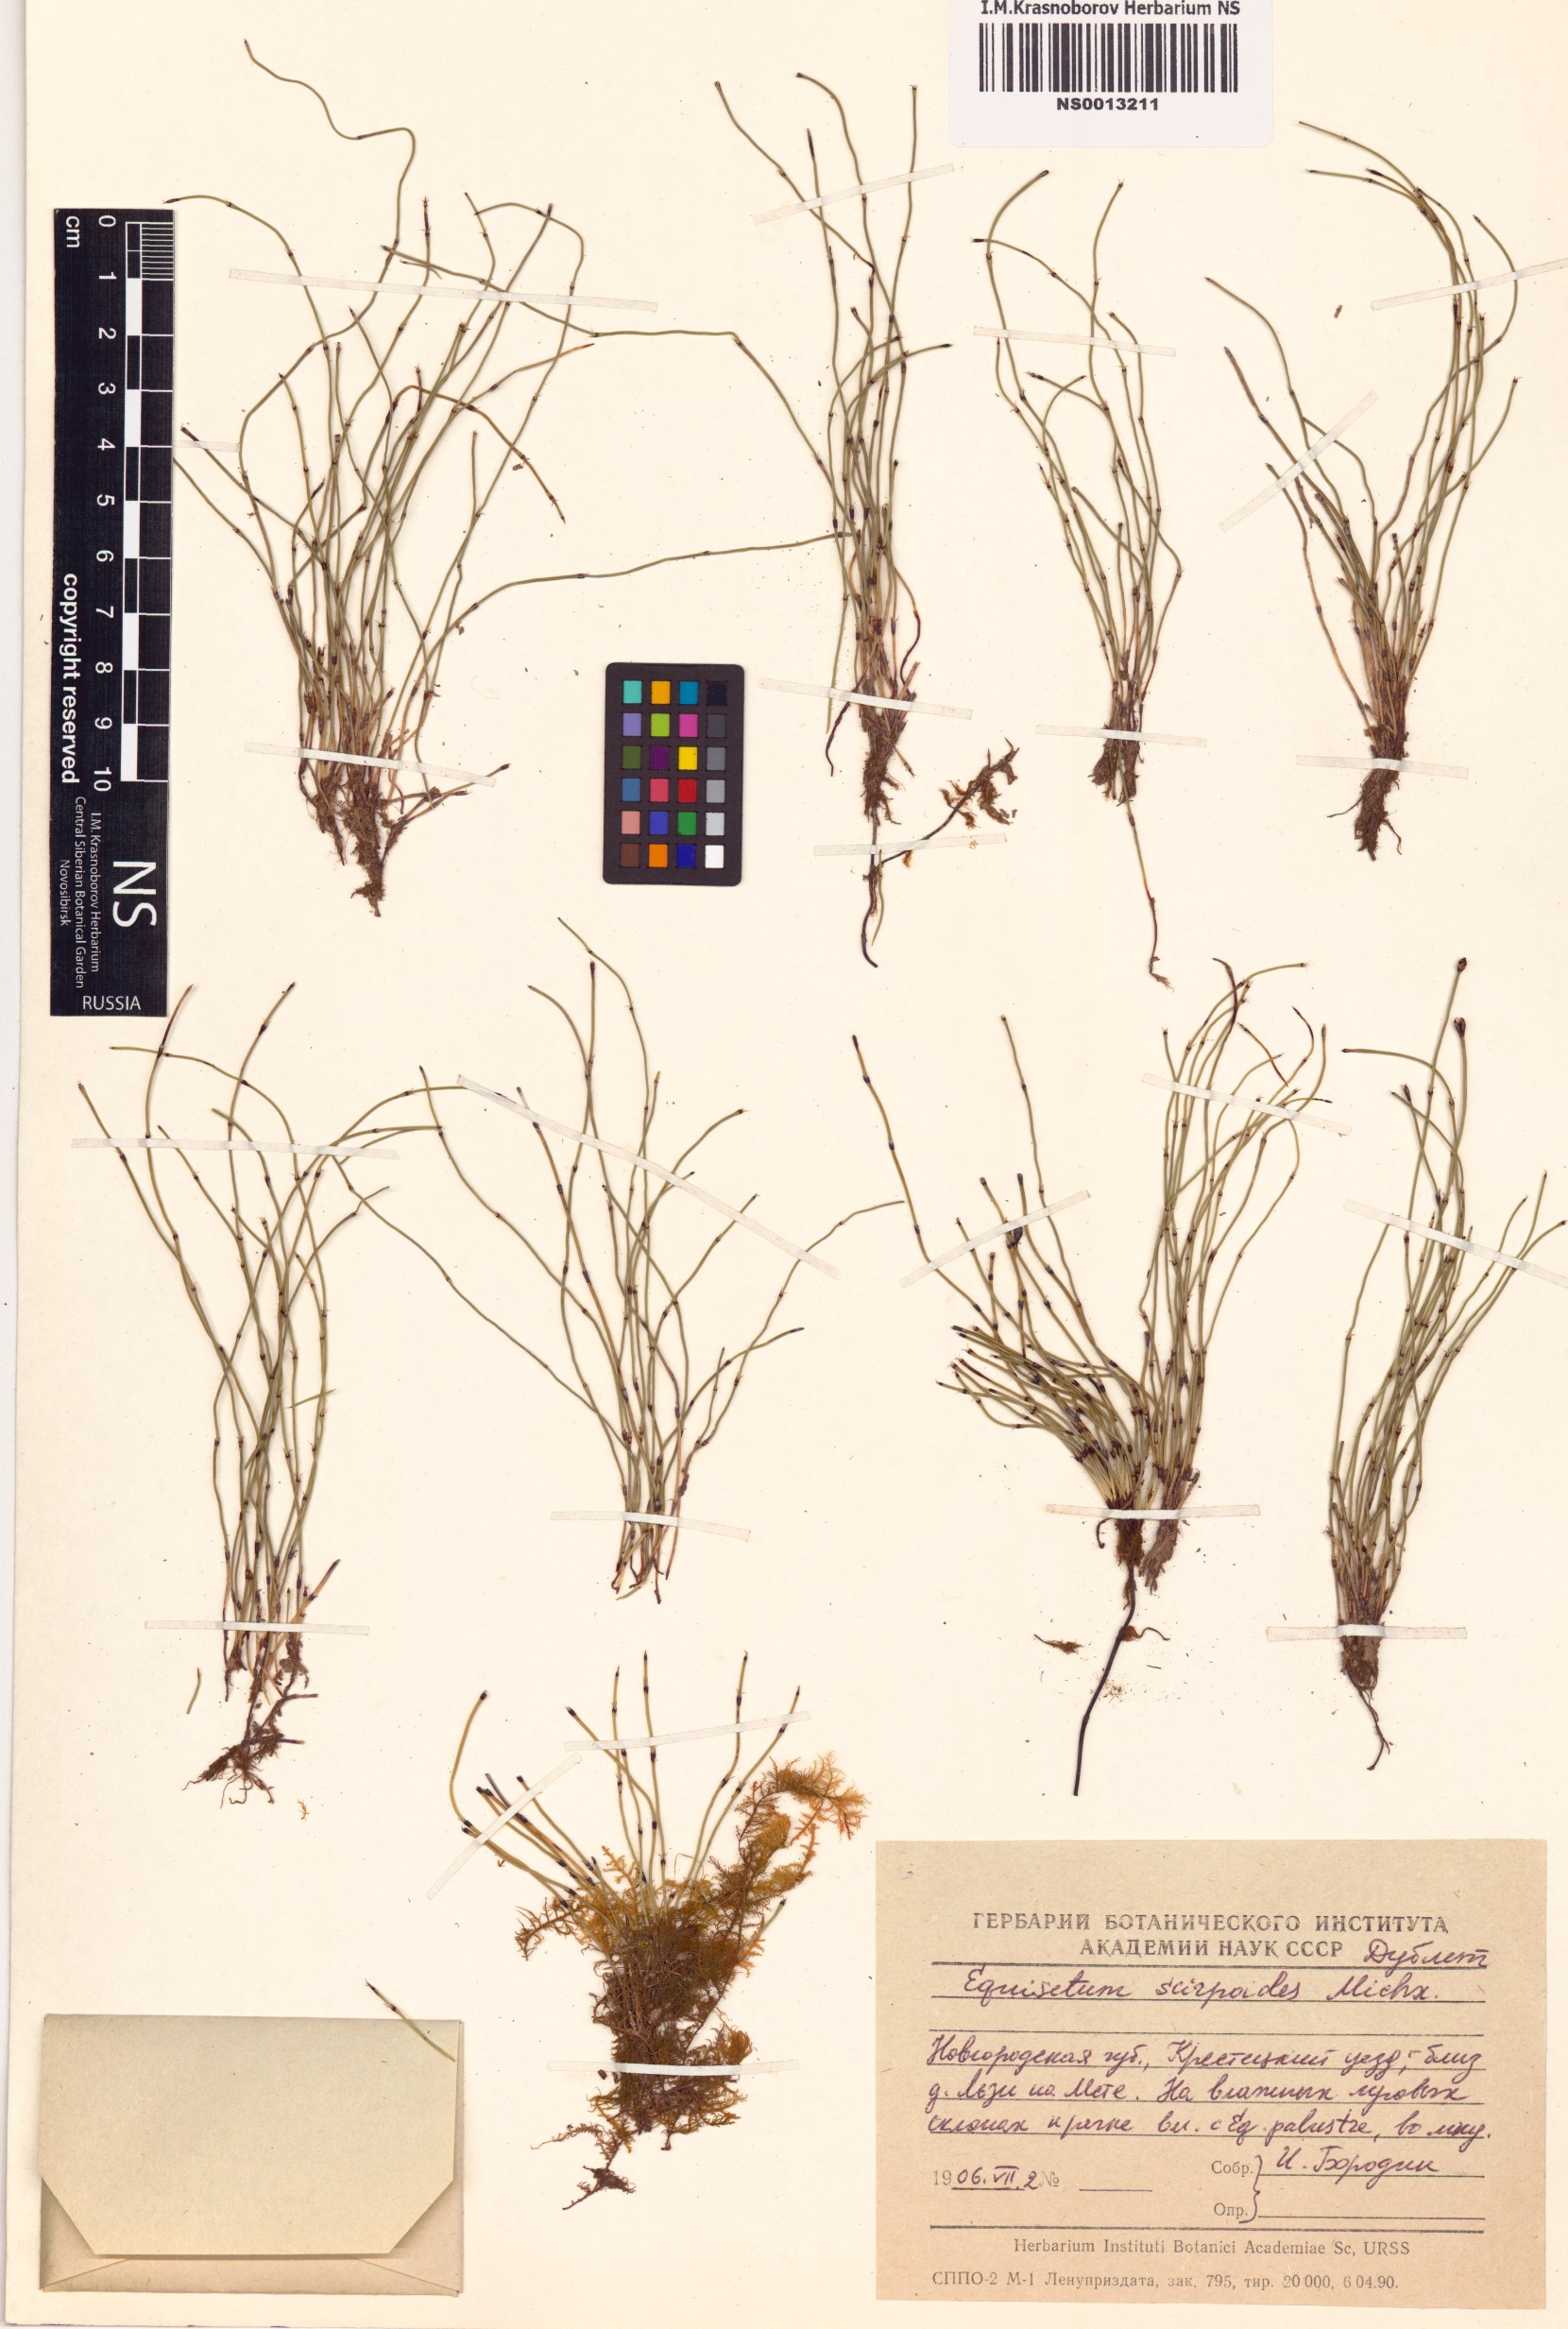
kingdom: Plantae
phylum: Tracheophyta
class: Polypodiopsida
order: Equisetales
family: Equisetaceae
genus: Equisetum
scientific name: Equisetum scirpoides
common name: Delicate horsetail
